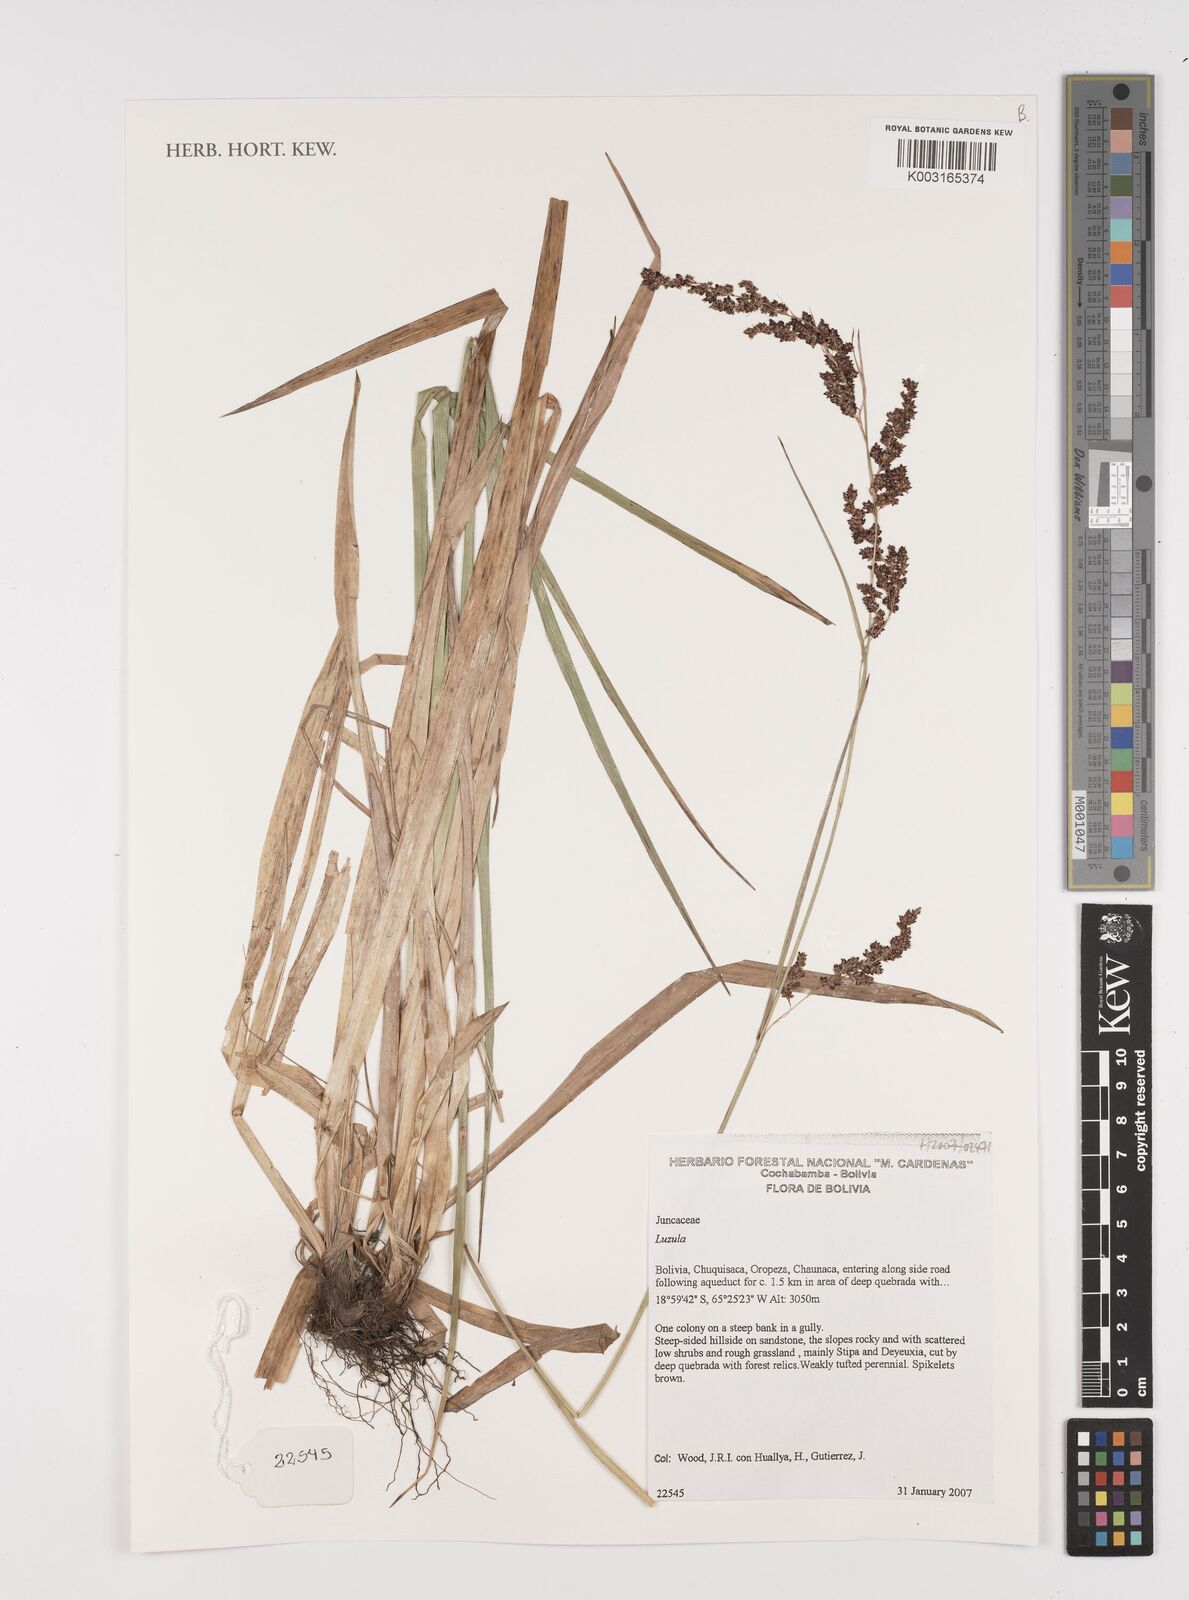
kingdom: Plantae
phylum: Tracheophyta
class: Liliopsida
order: Poales
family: Juncaceae
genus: Luzula
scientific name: Luzula
